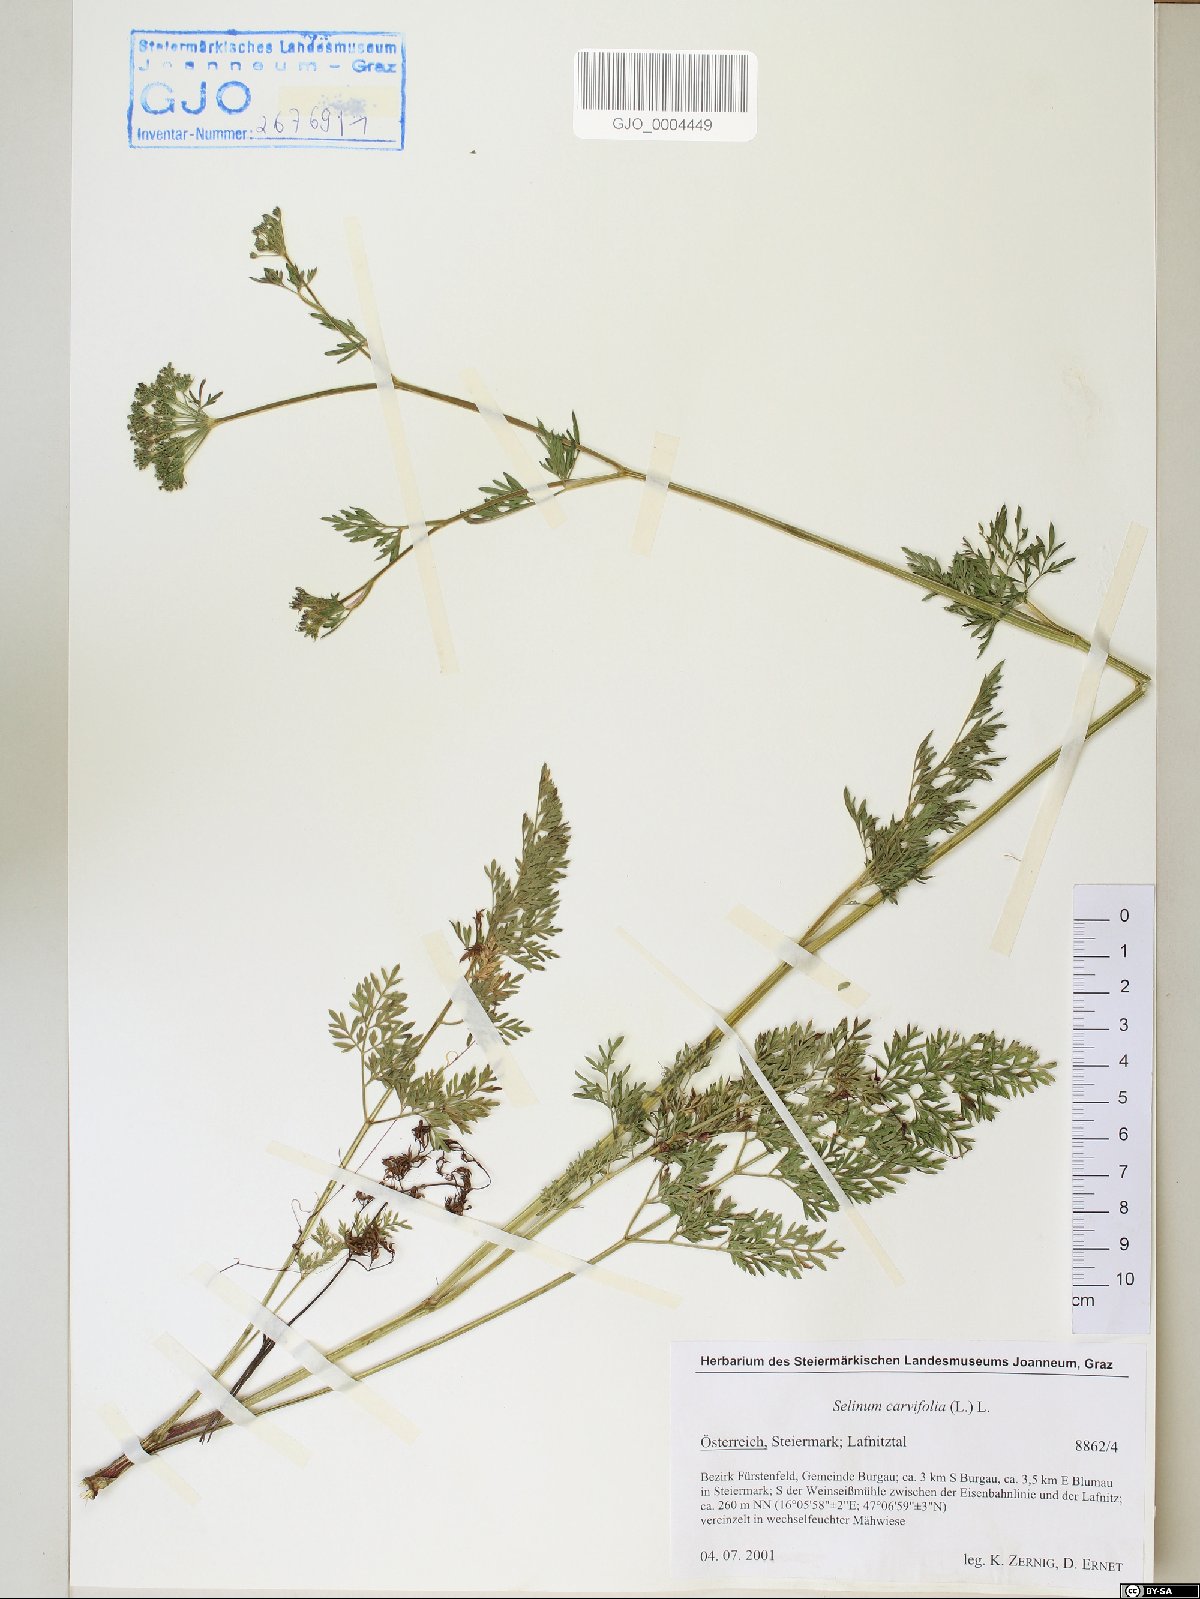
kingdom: Plantae
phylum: Tracheophyta
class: Magnoliopsida
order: Apiales
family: Apiaceae
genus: Selinum
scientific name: Selinum carvifolia
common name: Cambridge milk-parsley
